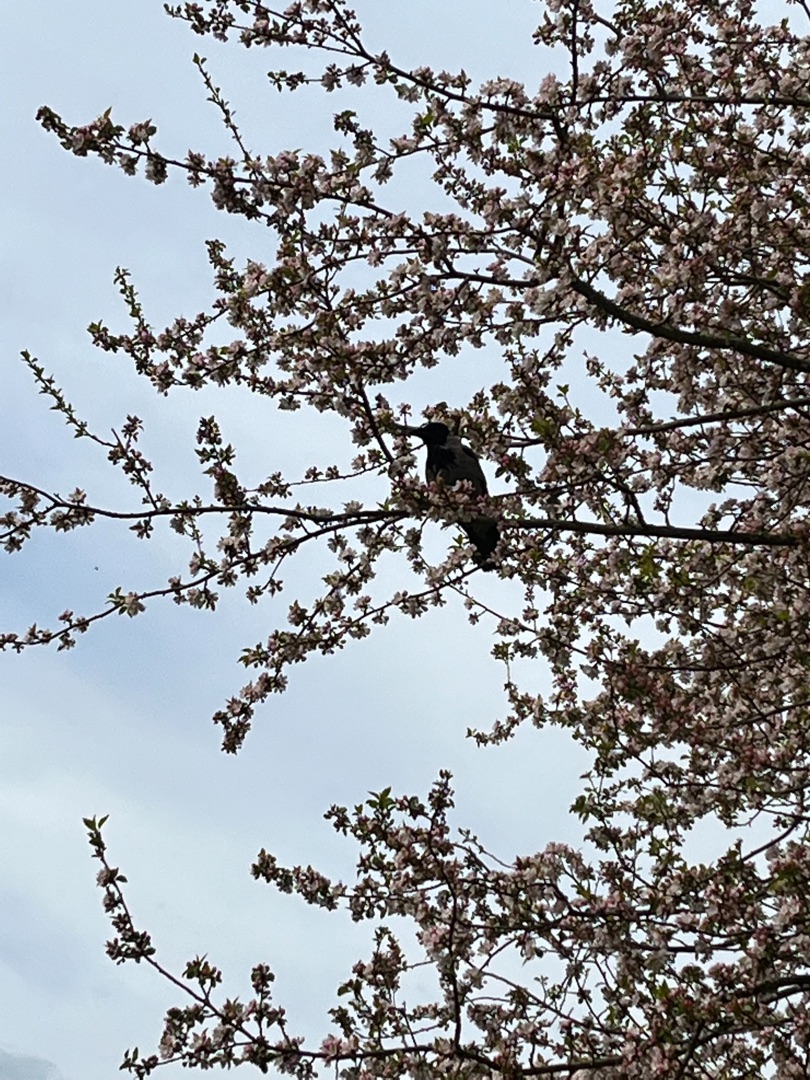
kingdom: Animalia
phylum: Chordata
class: Aves
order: Passeriformes
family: Corvidae
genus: Corvus
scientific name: Corvus cornix
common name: Gråkrage
